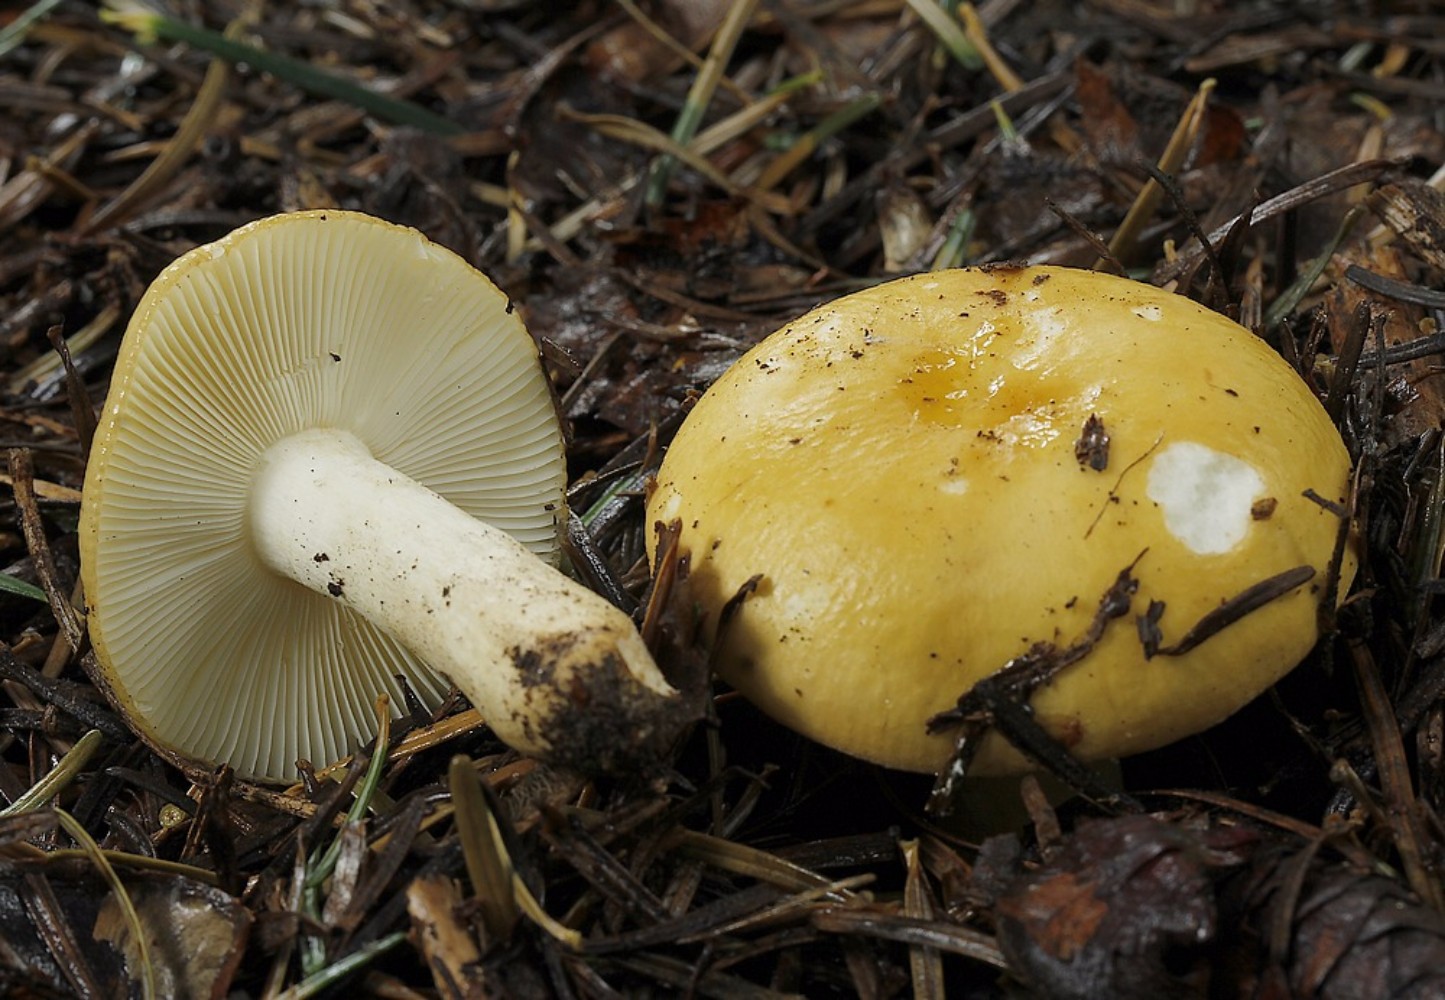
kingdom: Fungi
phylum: Basidiomycota
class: Agaricomycetes
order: Russulales
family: Russulaceae
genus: Russula
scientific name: Russula ochroleuca
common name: okkergul skørhat
